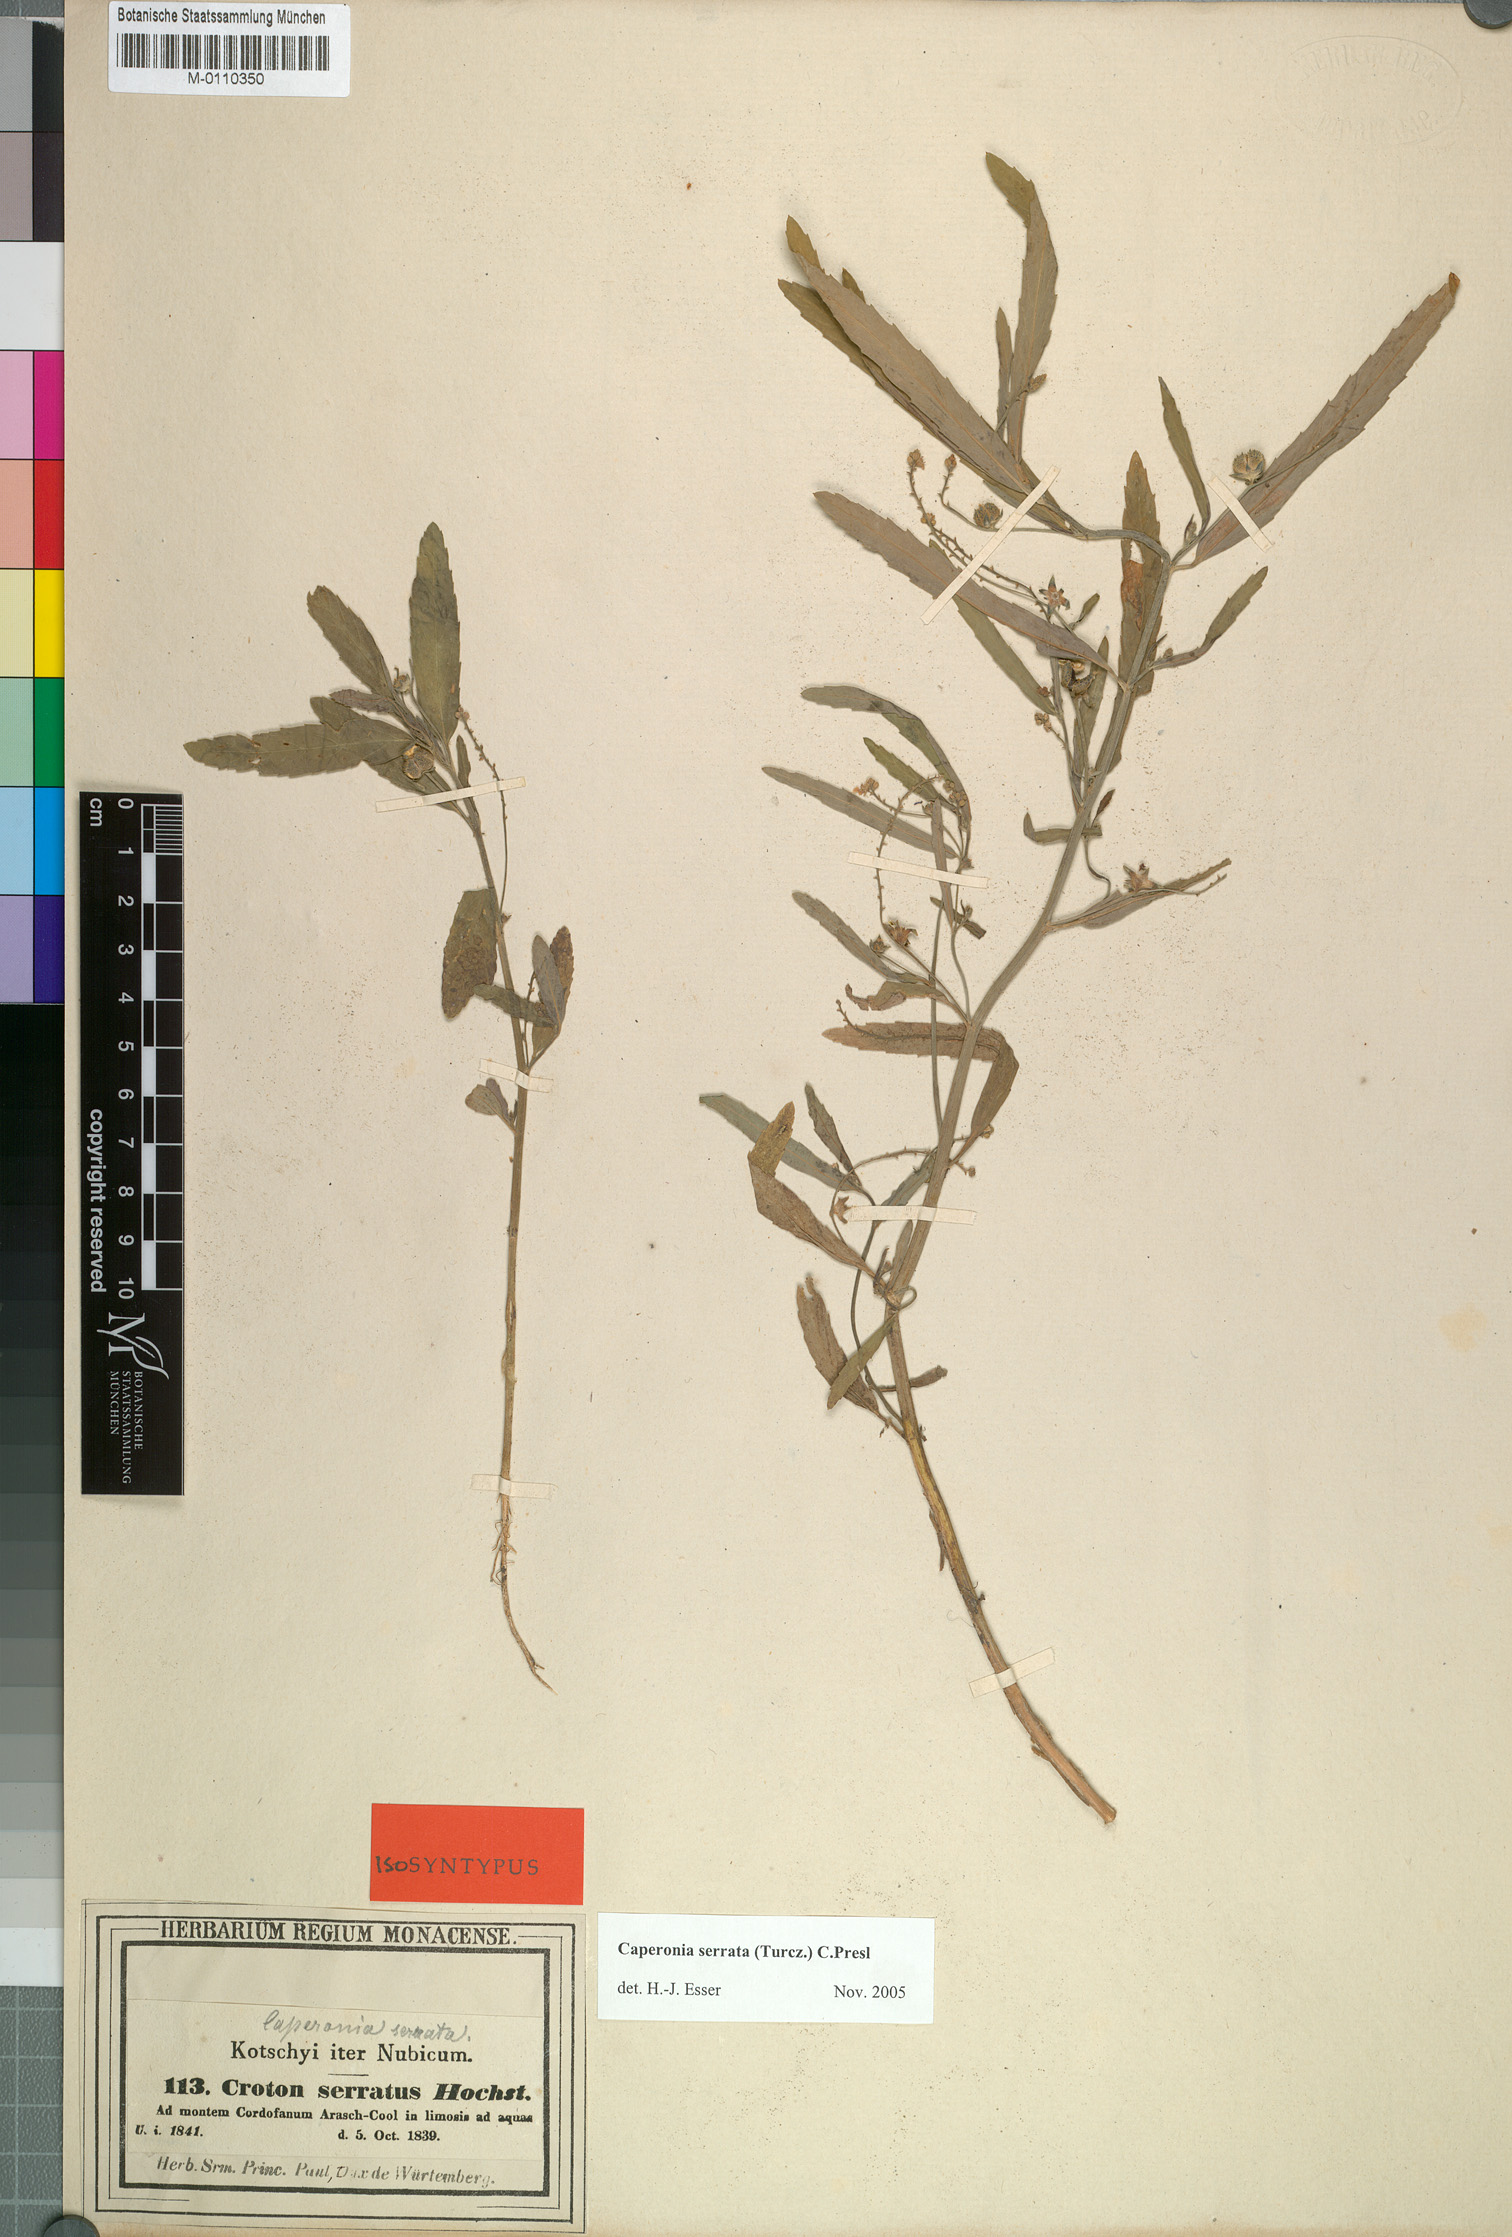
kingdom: Plantae
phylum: Tracheophyta
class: Magnoliopsida
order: Malpighiales
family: Euphorbiaceae
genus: Caperonia
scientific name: Caperonia serrata
